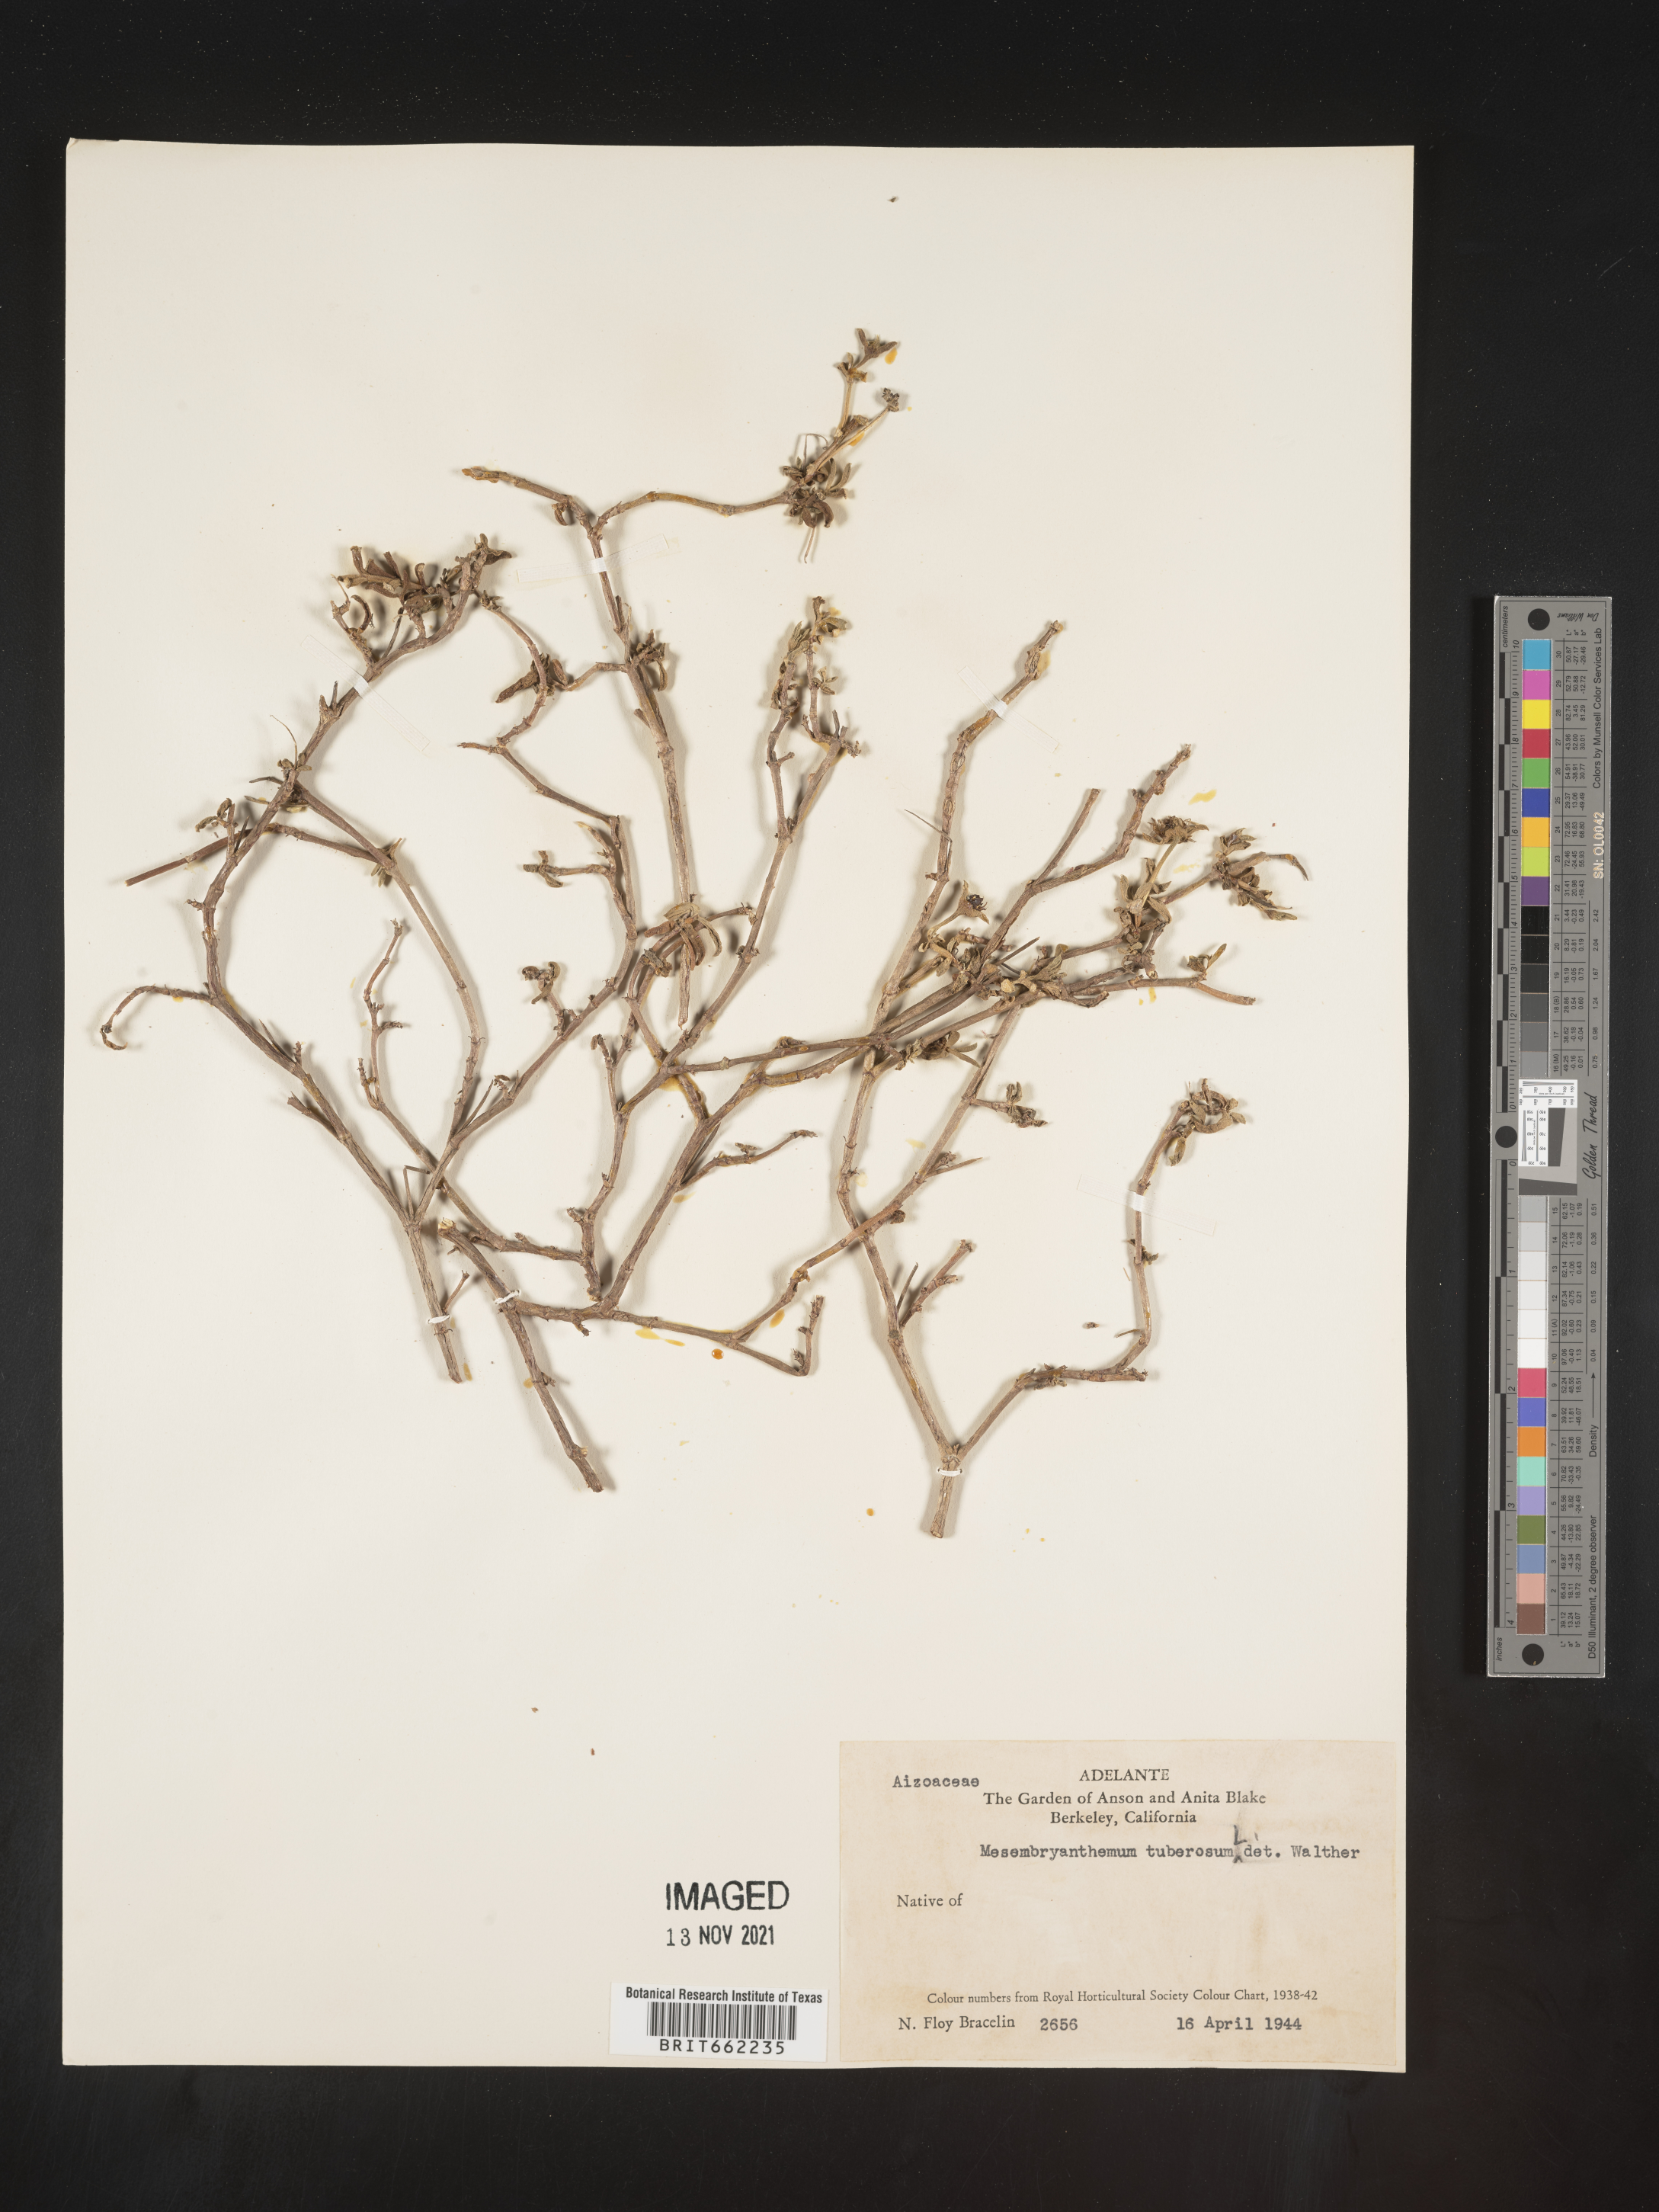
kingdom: Plantae
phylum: Tracheophyta
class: Magnoliopsida
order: Caryophyllales
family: Aizoaceae
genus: Mesembryanthemum
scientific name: Mesembryanthemum
